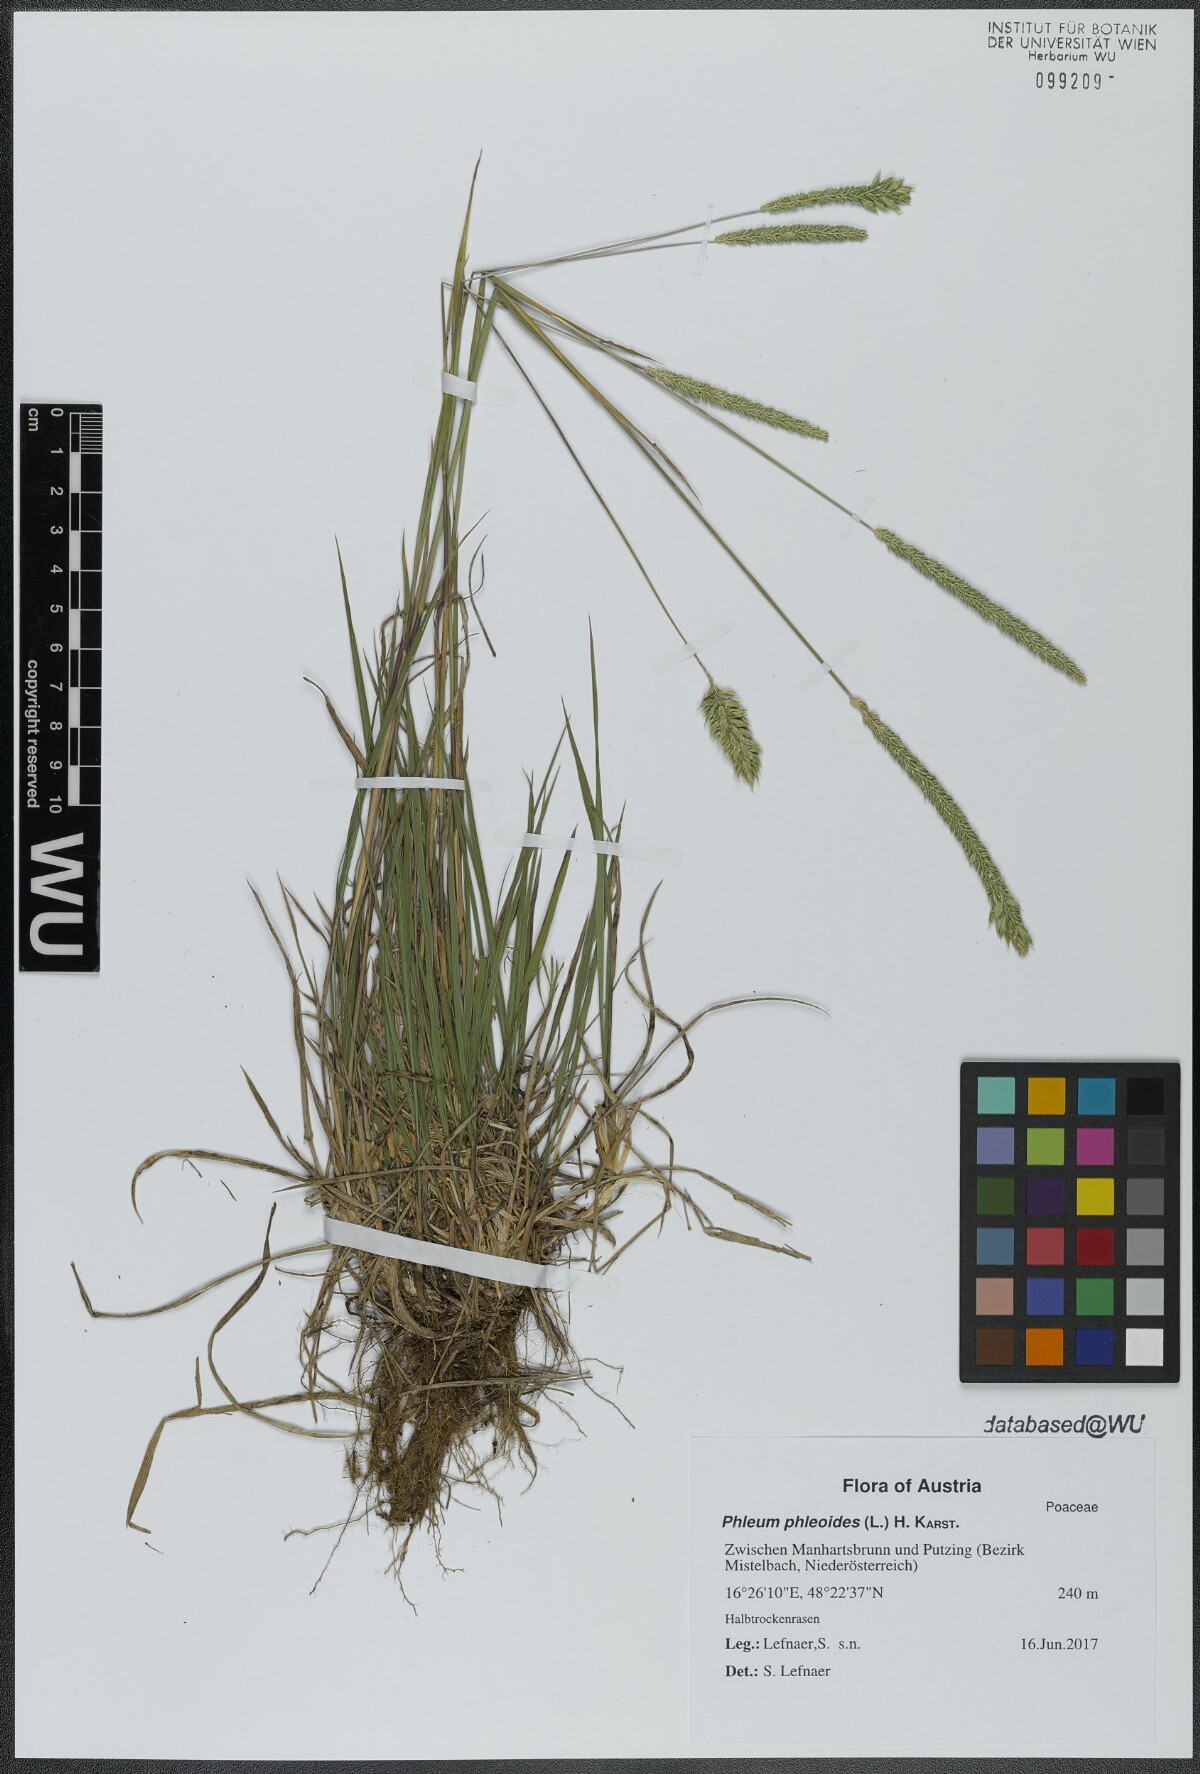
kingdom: Plantae
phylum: Tracheophyta
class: Liliopsida
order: Poales
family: Poaceae
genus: Phleum
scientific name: Phleum phleoides
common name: Purple-stem cat's-tail
